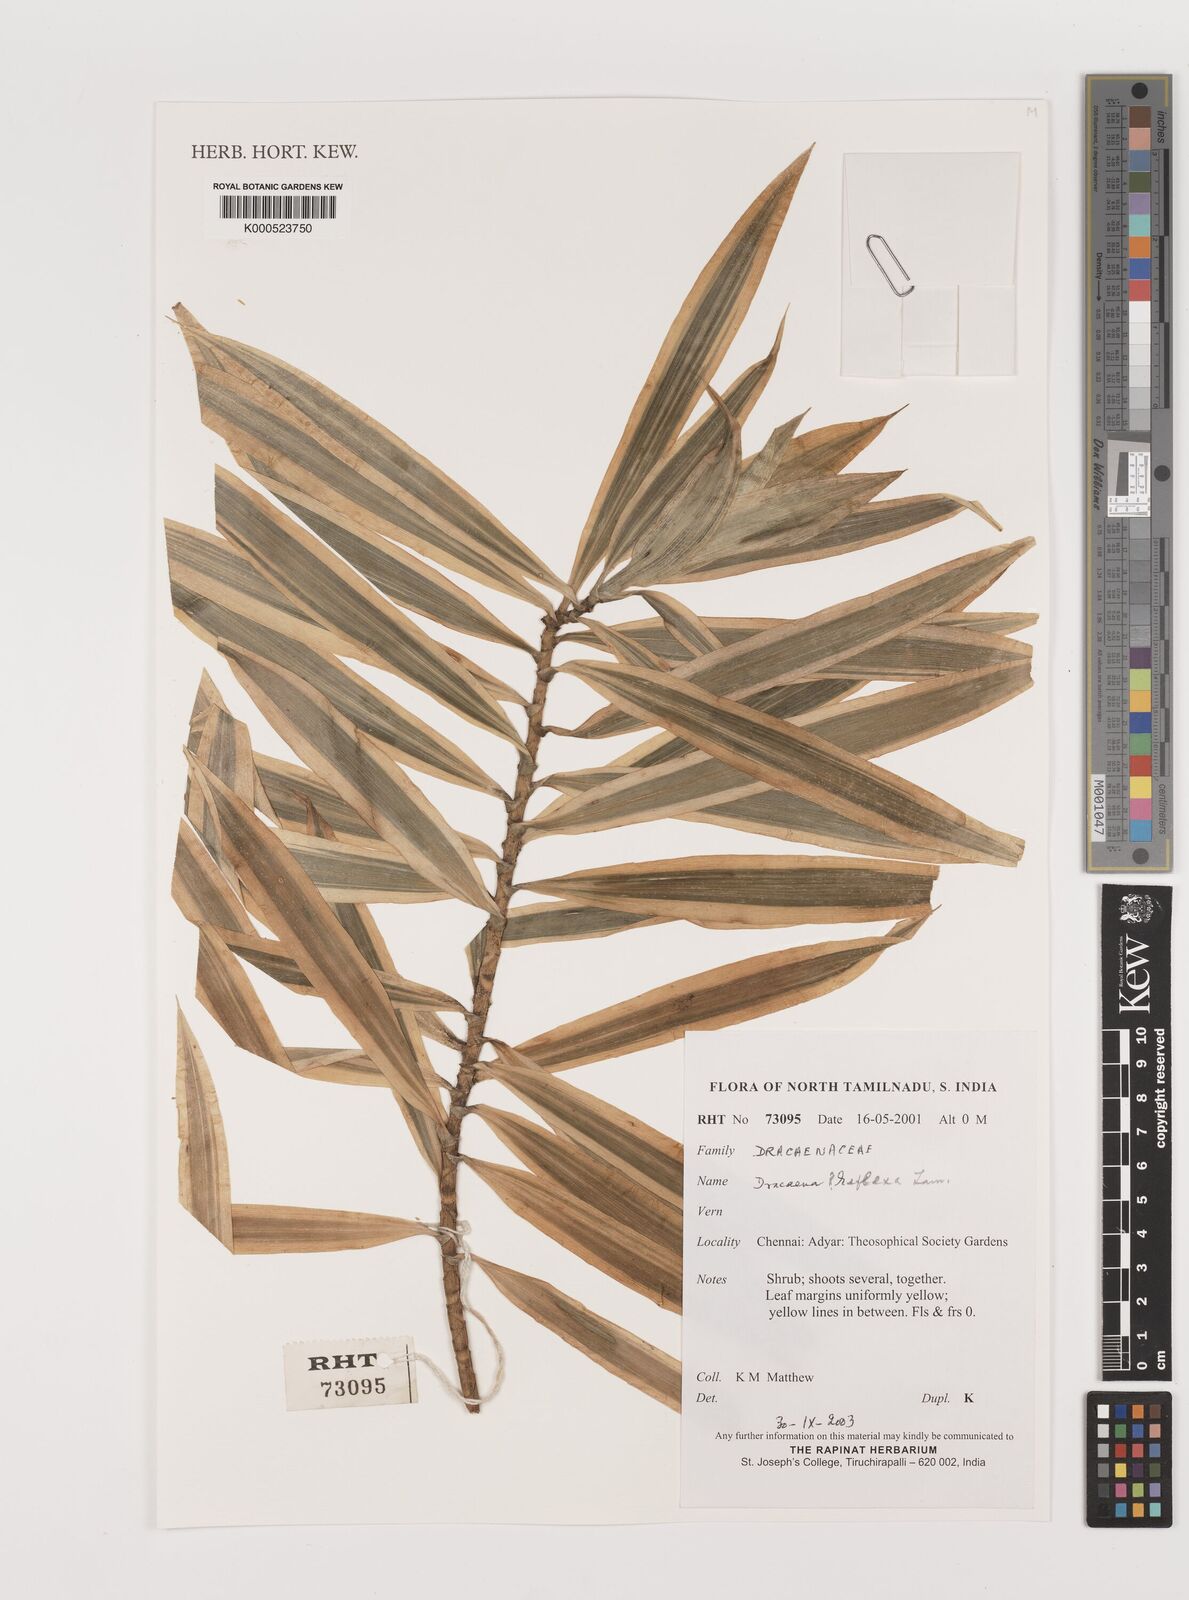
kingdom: Plantae
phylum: Tracheophyta
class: Liliopsida
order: Asparagales
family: Asparagaceae
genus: Dracaena
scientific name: Dracaena reflexa
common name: Song-of-india
